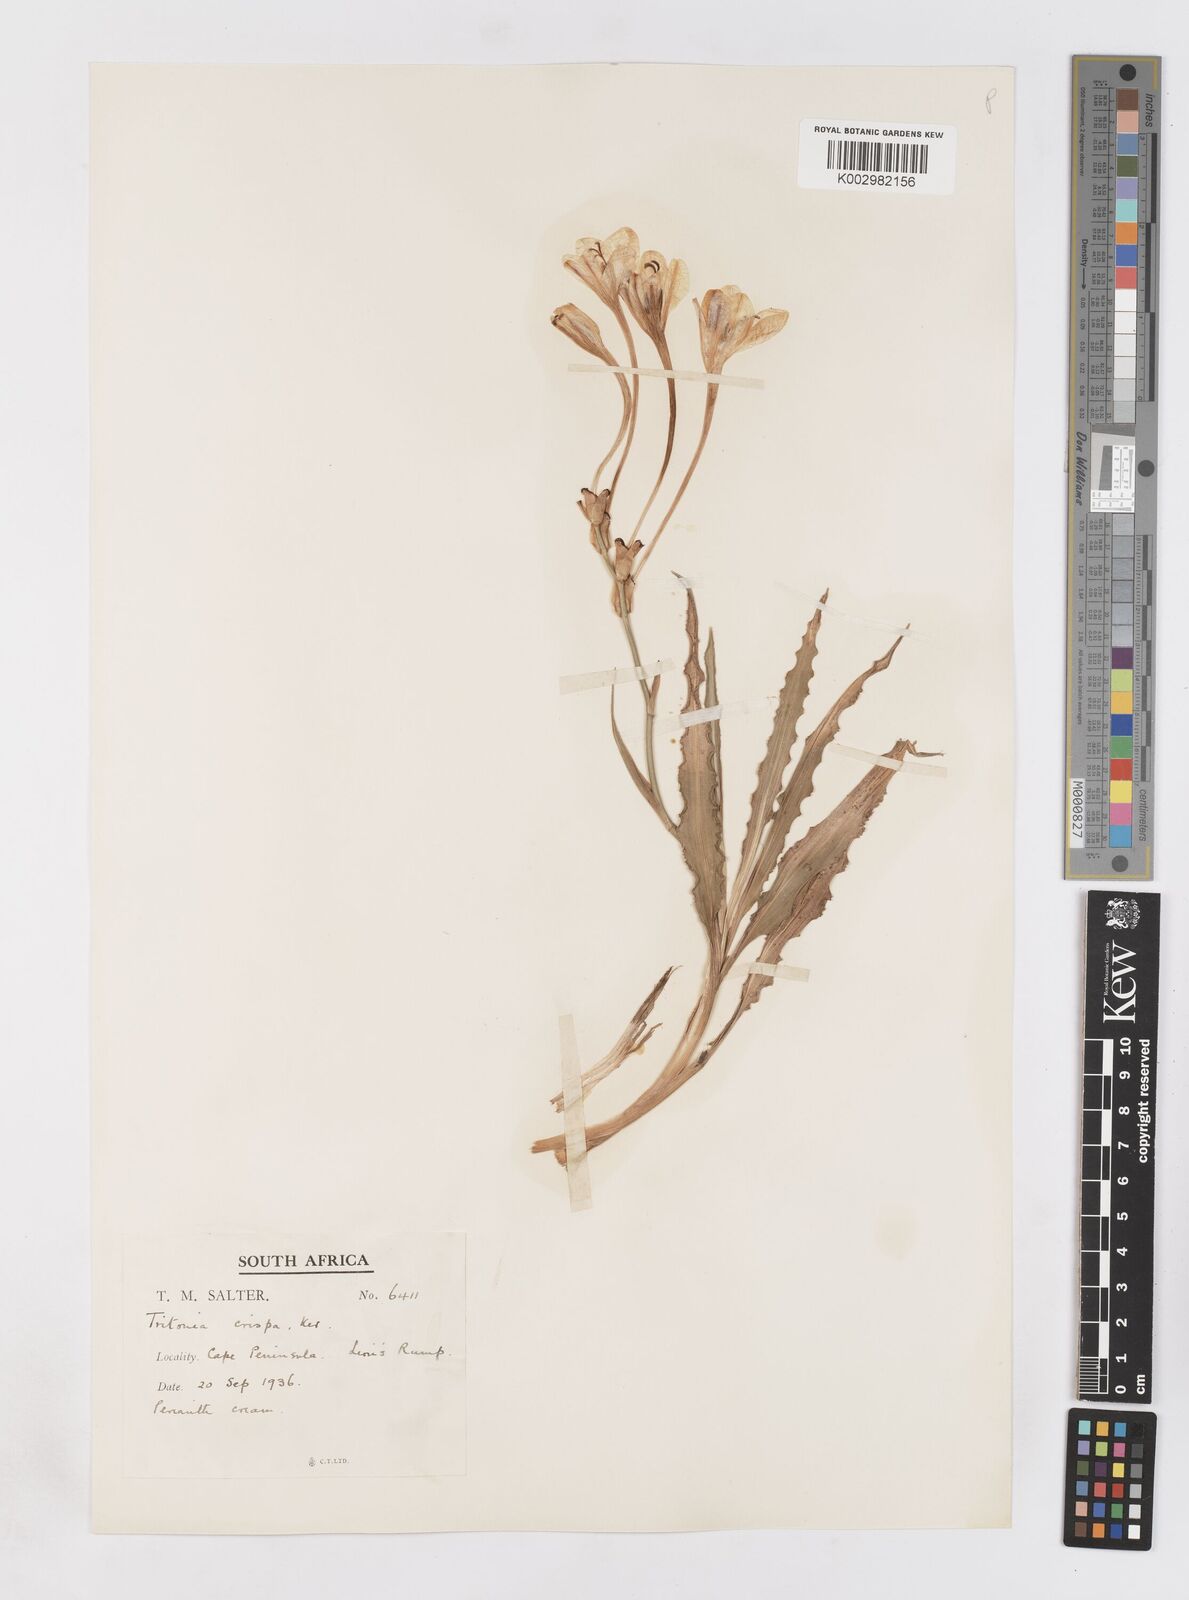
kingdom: Plantae
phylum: Tracheophyta
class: Liliopsida
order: Asparagales
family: Iridaceae
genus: Tritonia
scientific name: Tritonia undulata
